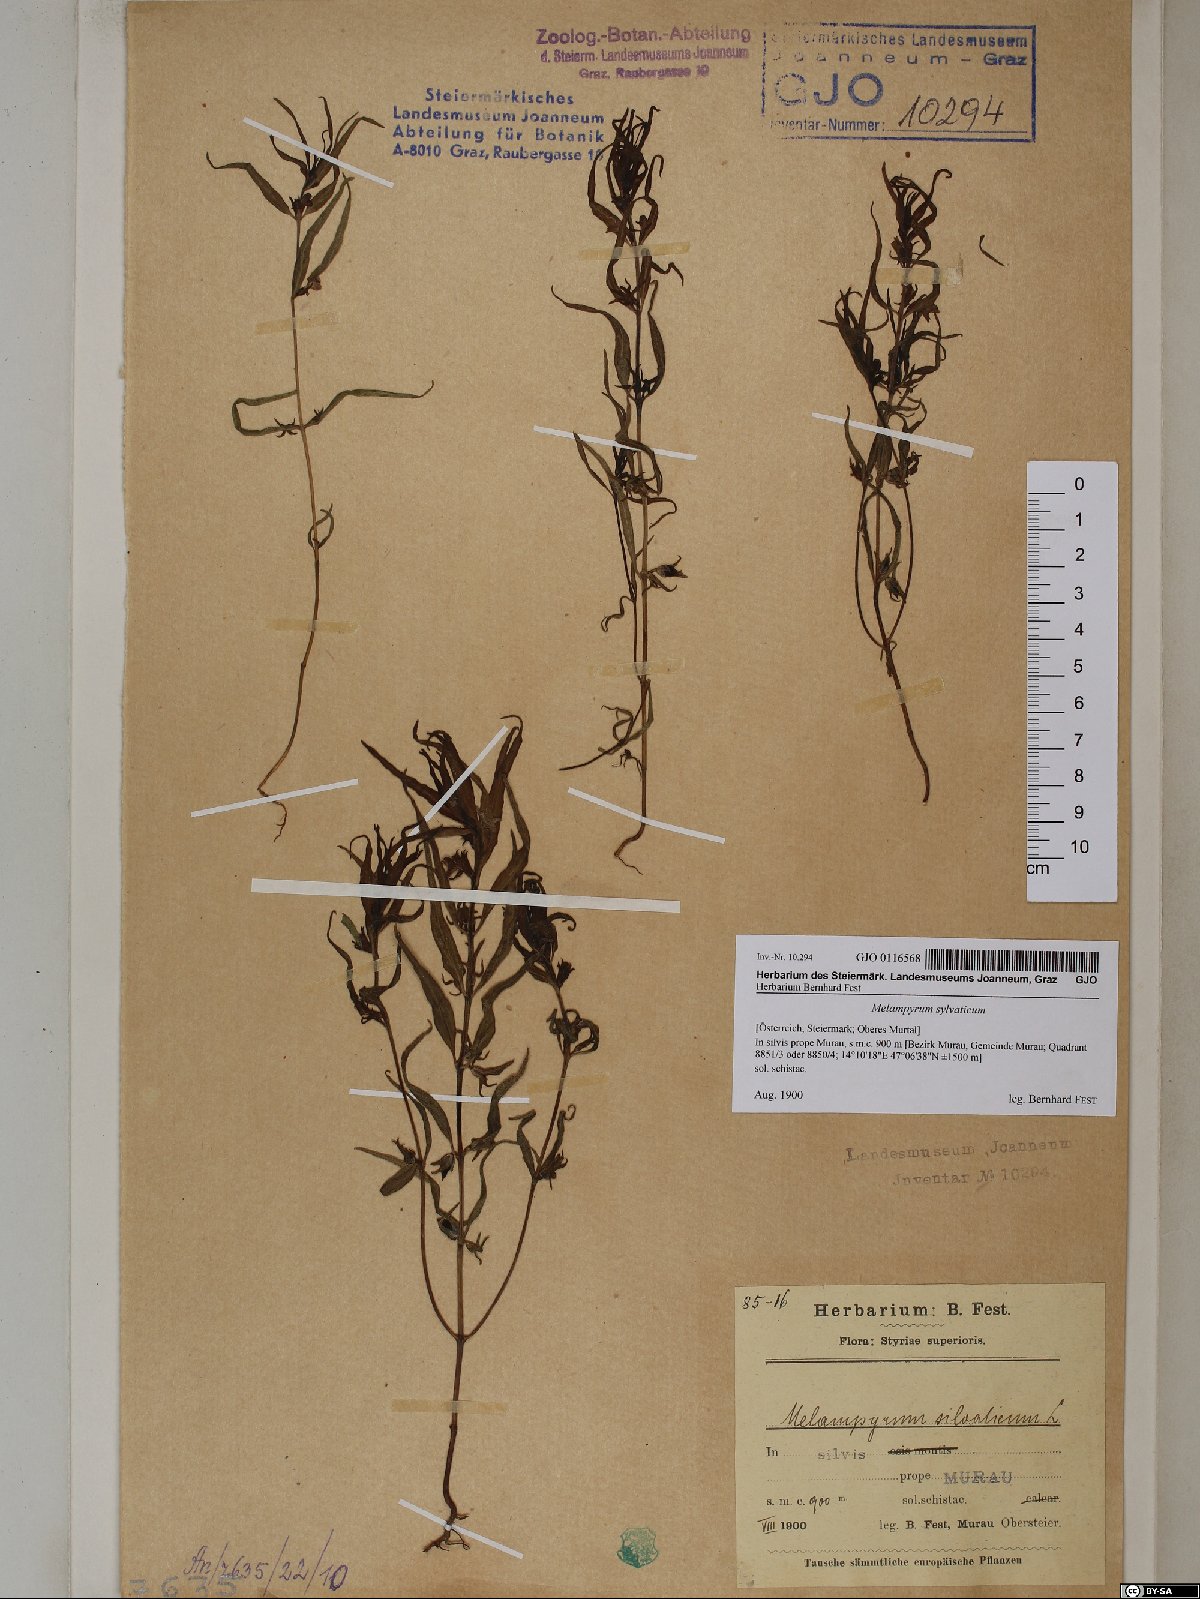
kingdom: Plantae
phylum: Tracheophyta
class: Magnoliopsida
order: Lamiales
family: Orobanchaceae
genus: Melampyrum
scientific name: Melampyrum sylvaticum
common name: Small cow-wheat
